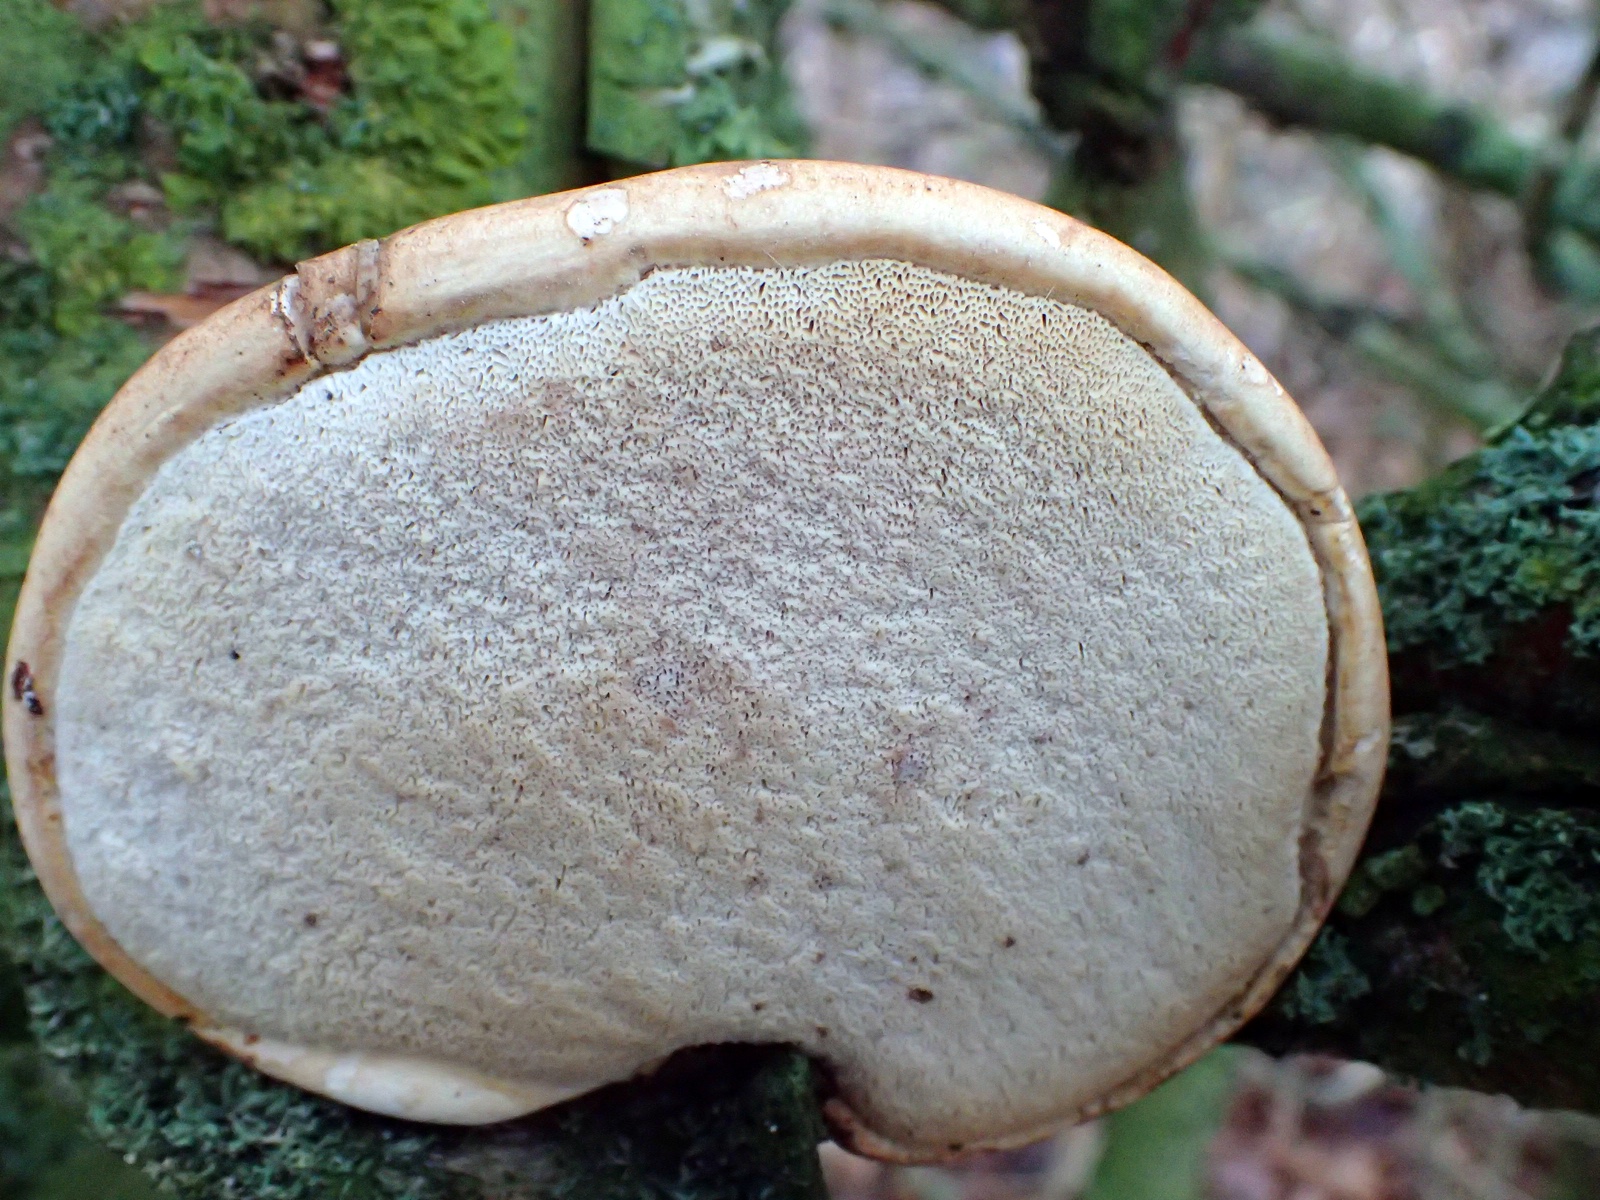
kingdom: Fungi
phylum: Basidiomycota
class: Agaricomycetes
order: Polyporales
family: Fomitopsidaceae
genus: Fomitopsis
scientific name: Fomitopsis betulina
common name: birkeporesvamp
